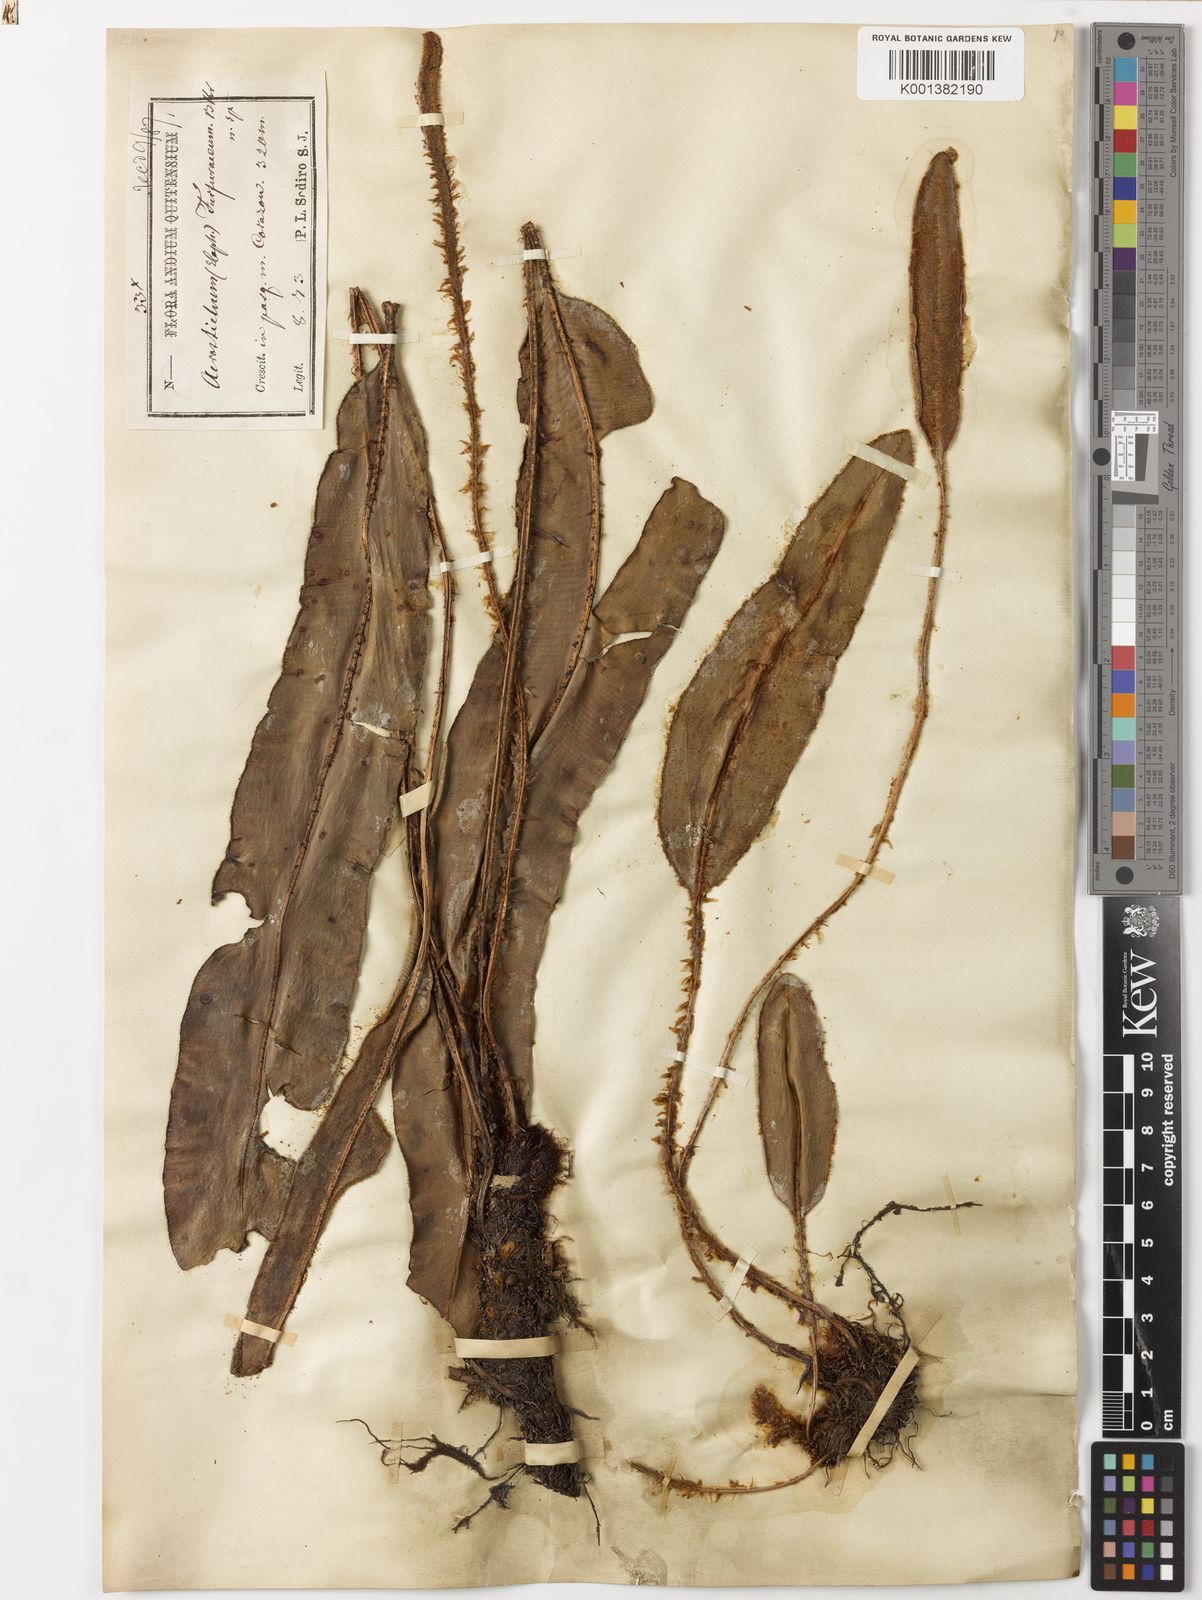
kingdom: Plantae
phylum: Tracheophyta
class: Polypodiopsida
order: Polypodiales
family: Dryopteridaceae
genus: Elaphoglossum
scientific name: Elaphoglossum glabrescens
